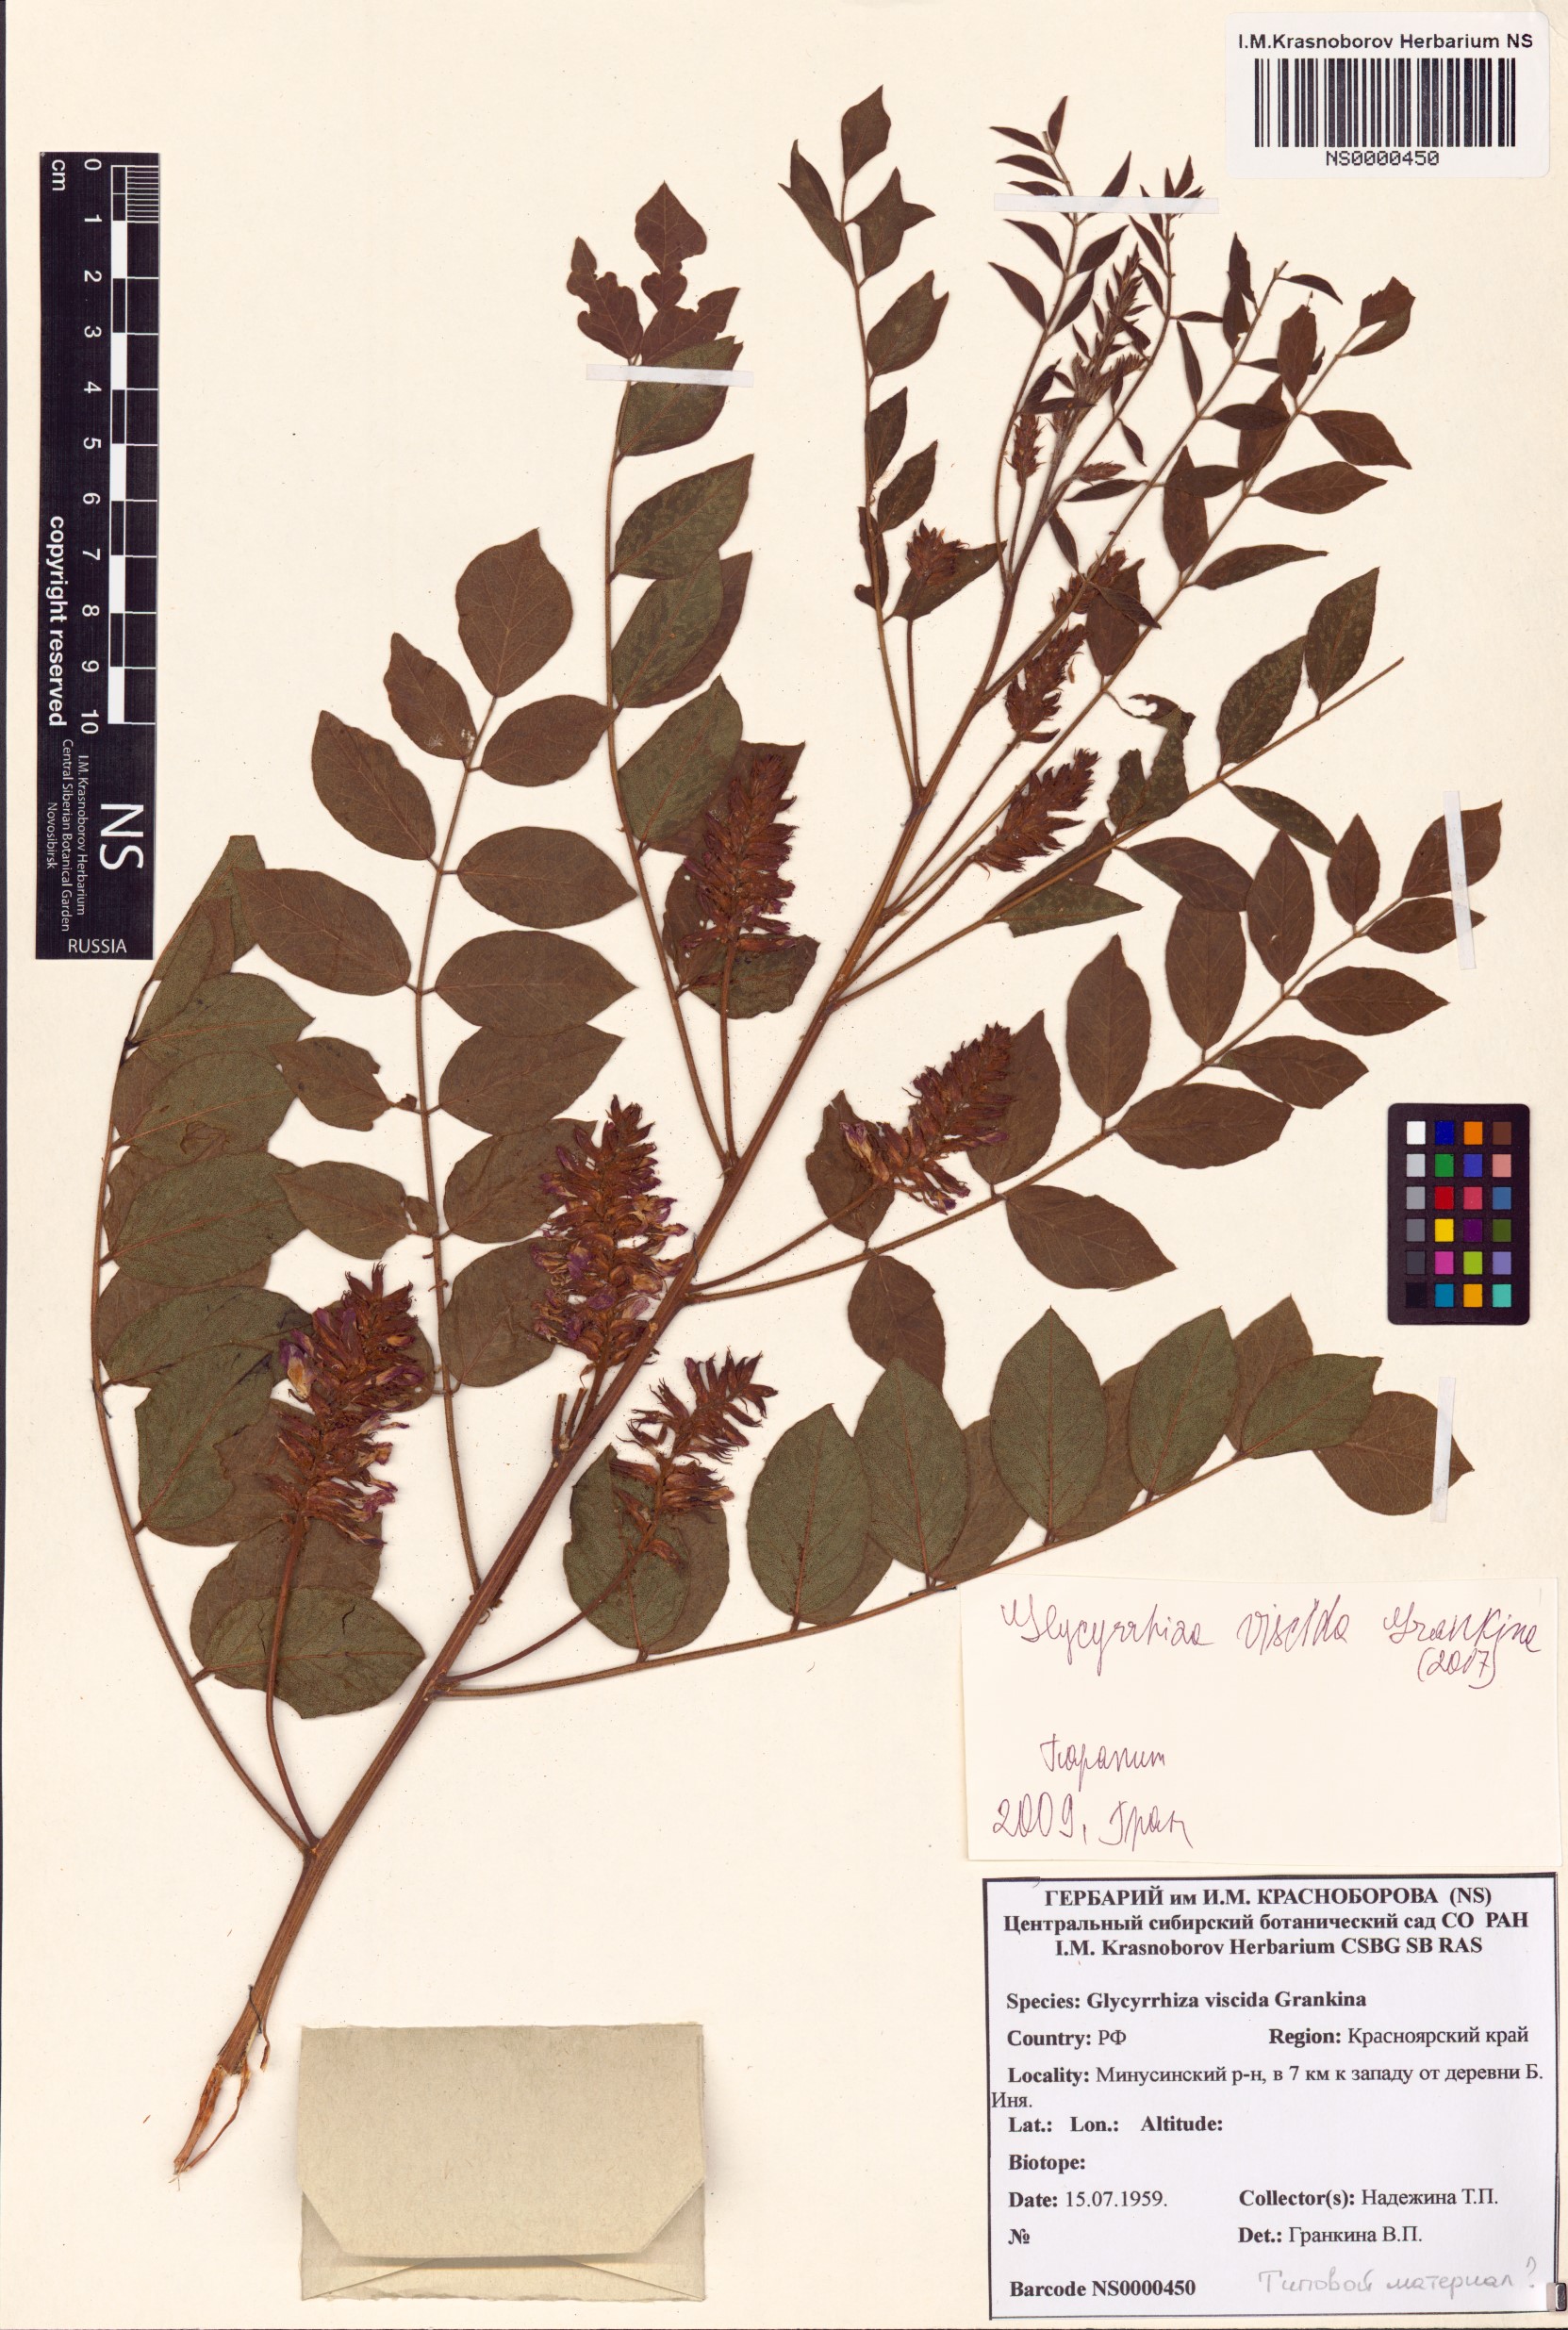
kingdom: Plantae
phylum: Tracheophyta
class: Magnoliopsida
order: Fabales
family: Fabaceae
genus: Glycyrrhiza
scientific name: Glycyrrhiza uralensis
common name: Chinese licorice
